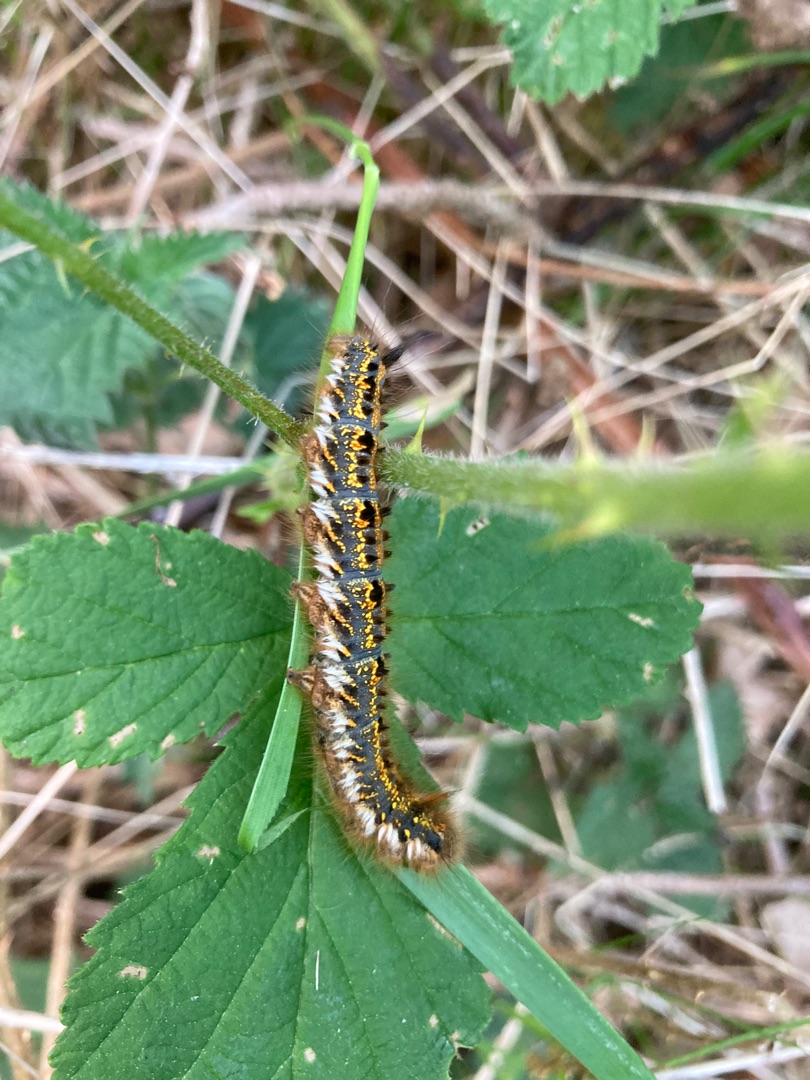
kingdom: Animalia
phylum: Arthropoda
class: Insecta
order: Lepidoptera
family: Lasiocampidae
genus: Euthrix
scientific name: Euthrix potatoria
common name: Græsspinder
